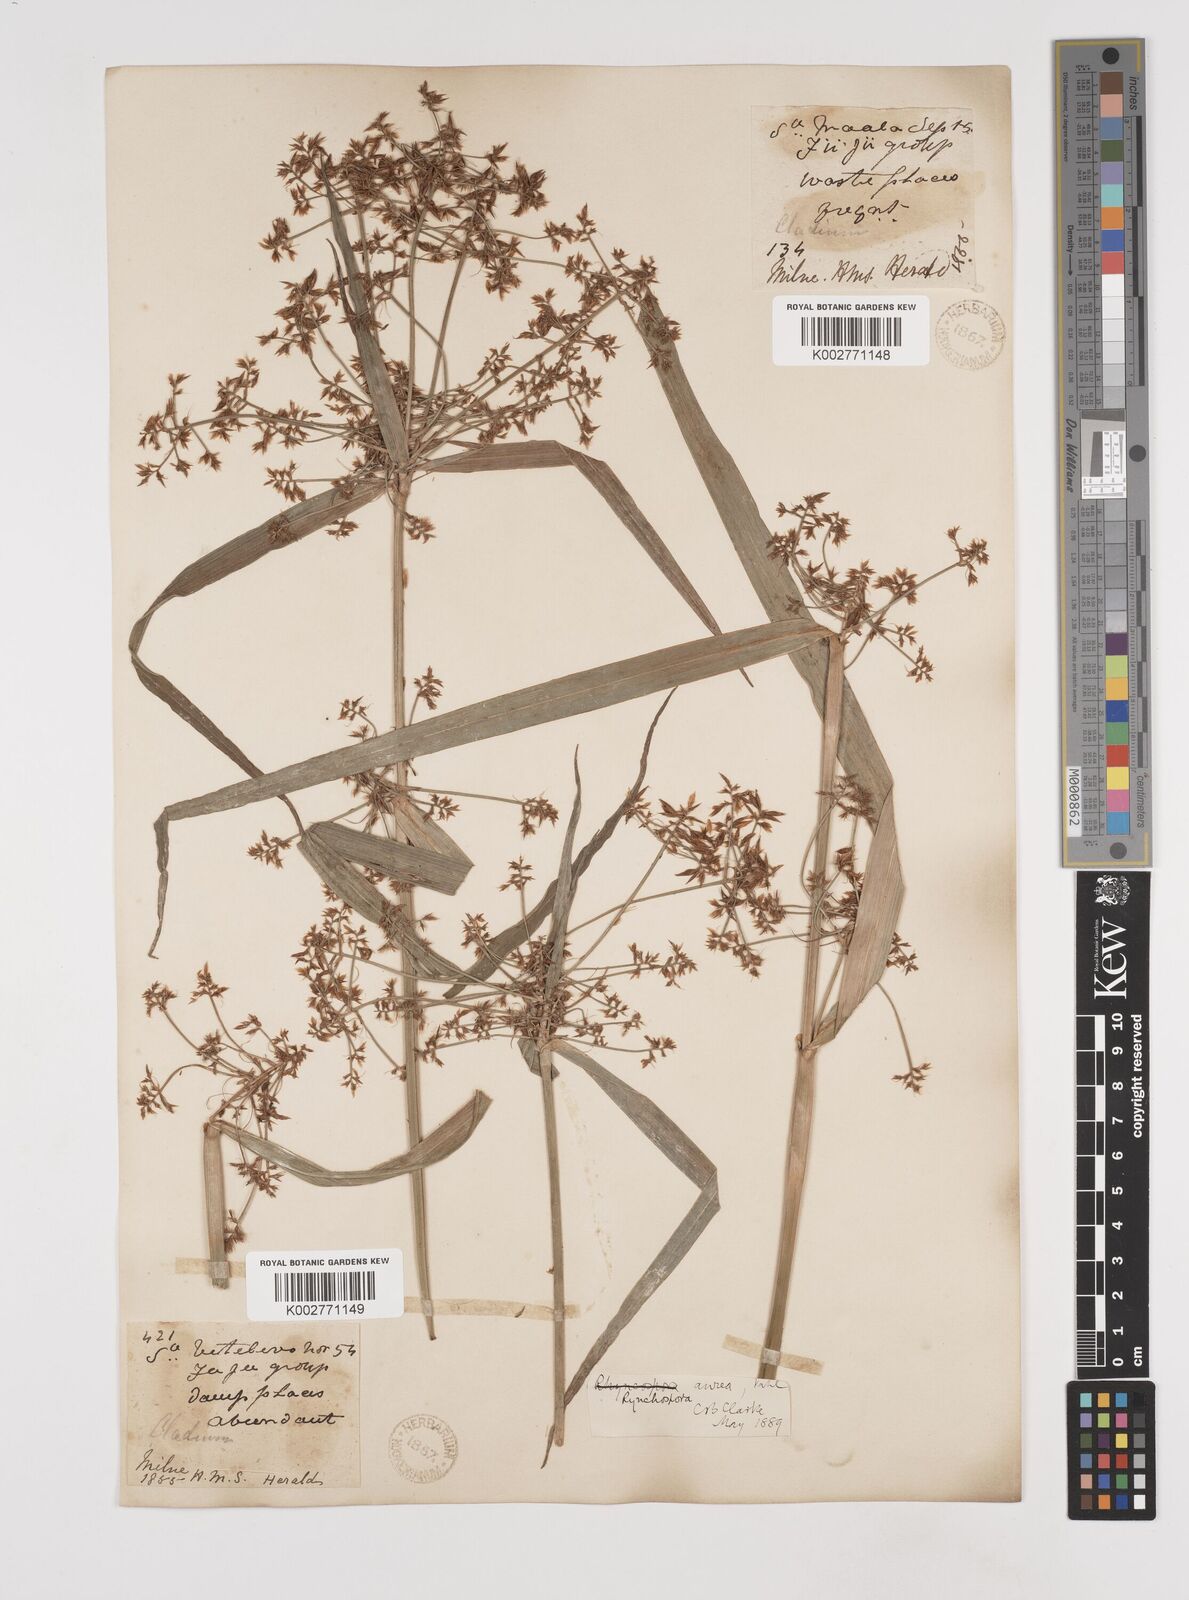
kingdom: Plantae
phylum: Tracheophyta
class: Liliopsida
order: Poales
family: Cyperaceae
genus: Rhynchospora
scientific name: Rhynchospora corymbosa
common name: Golden beak sedge
